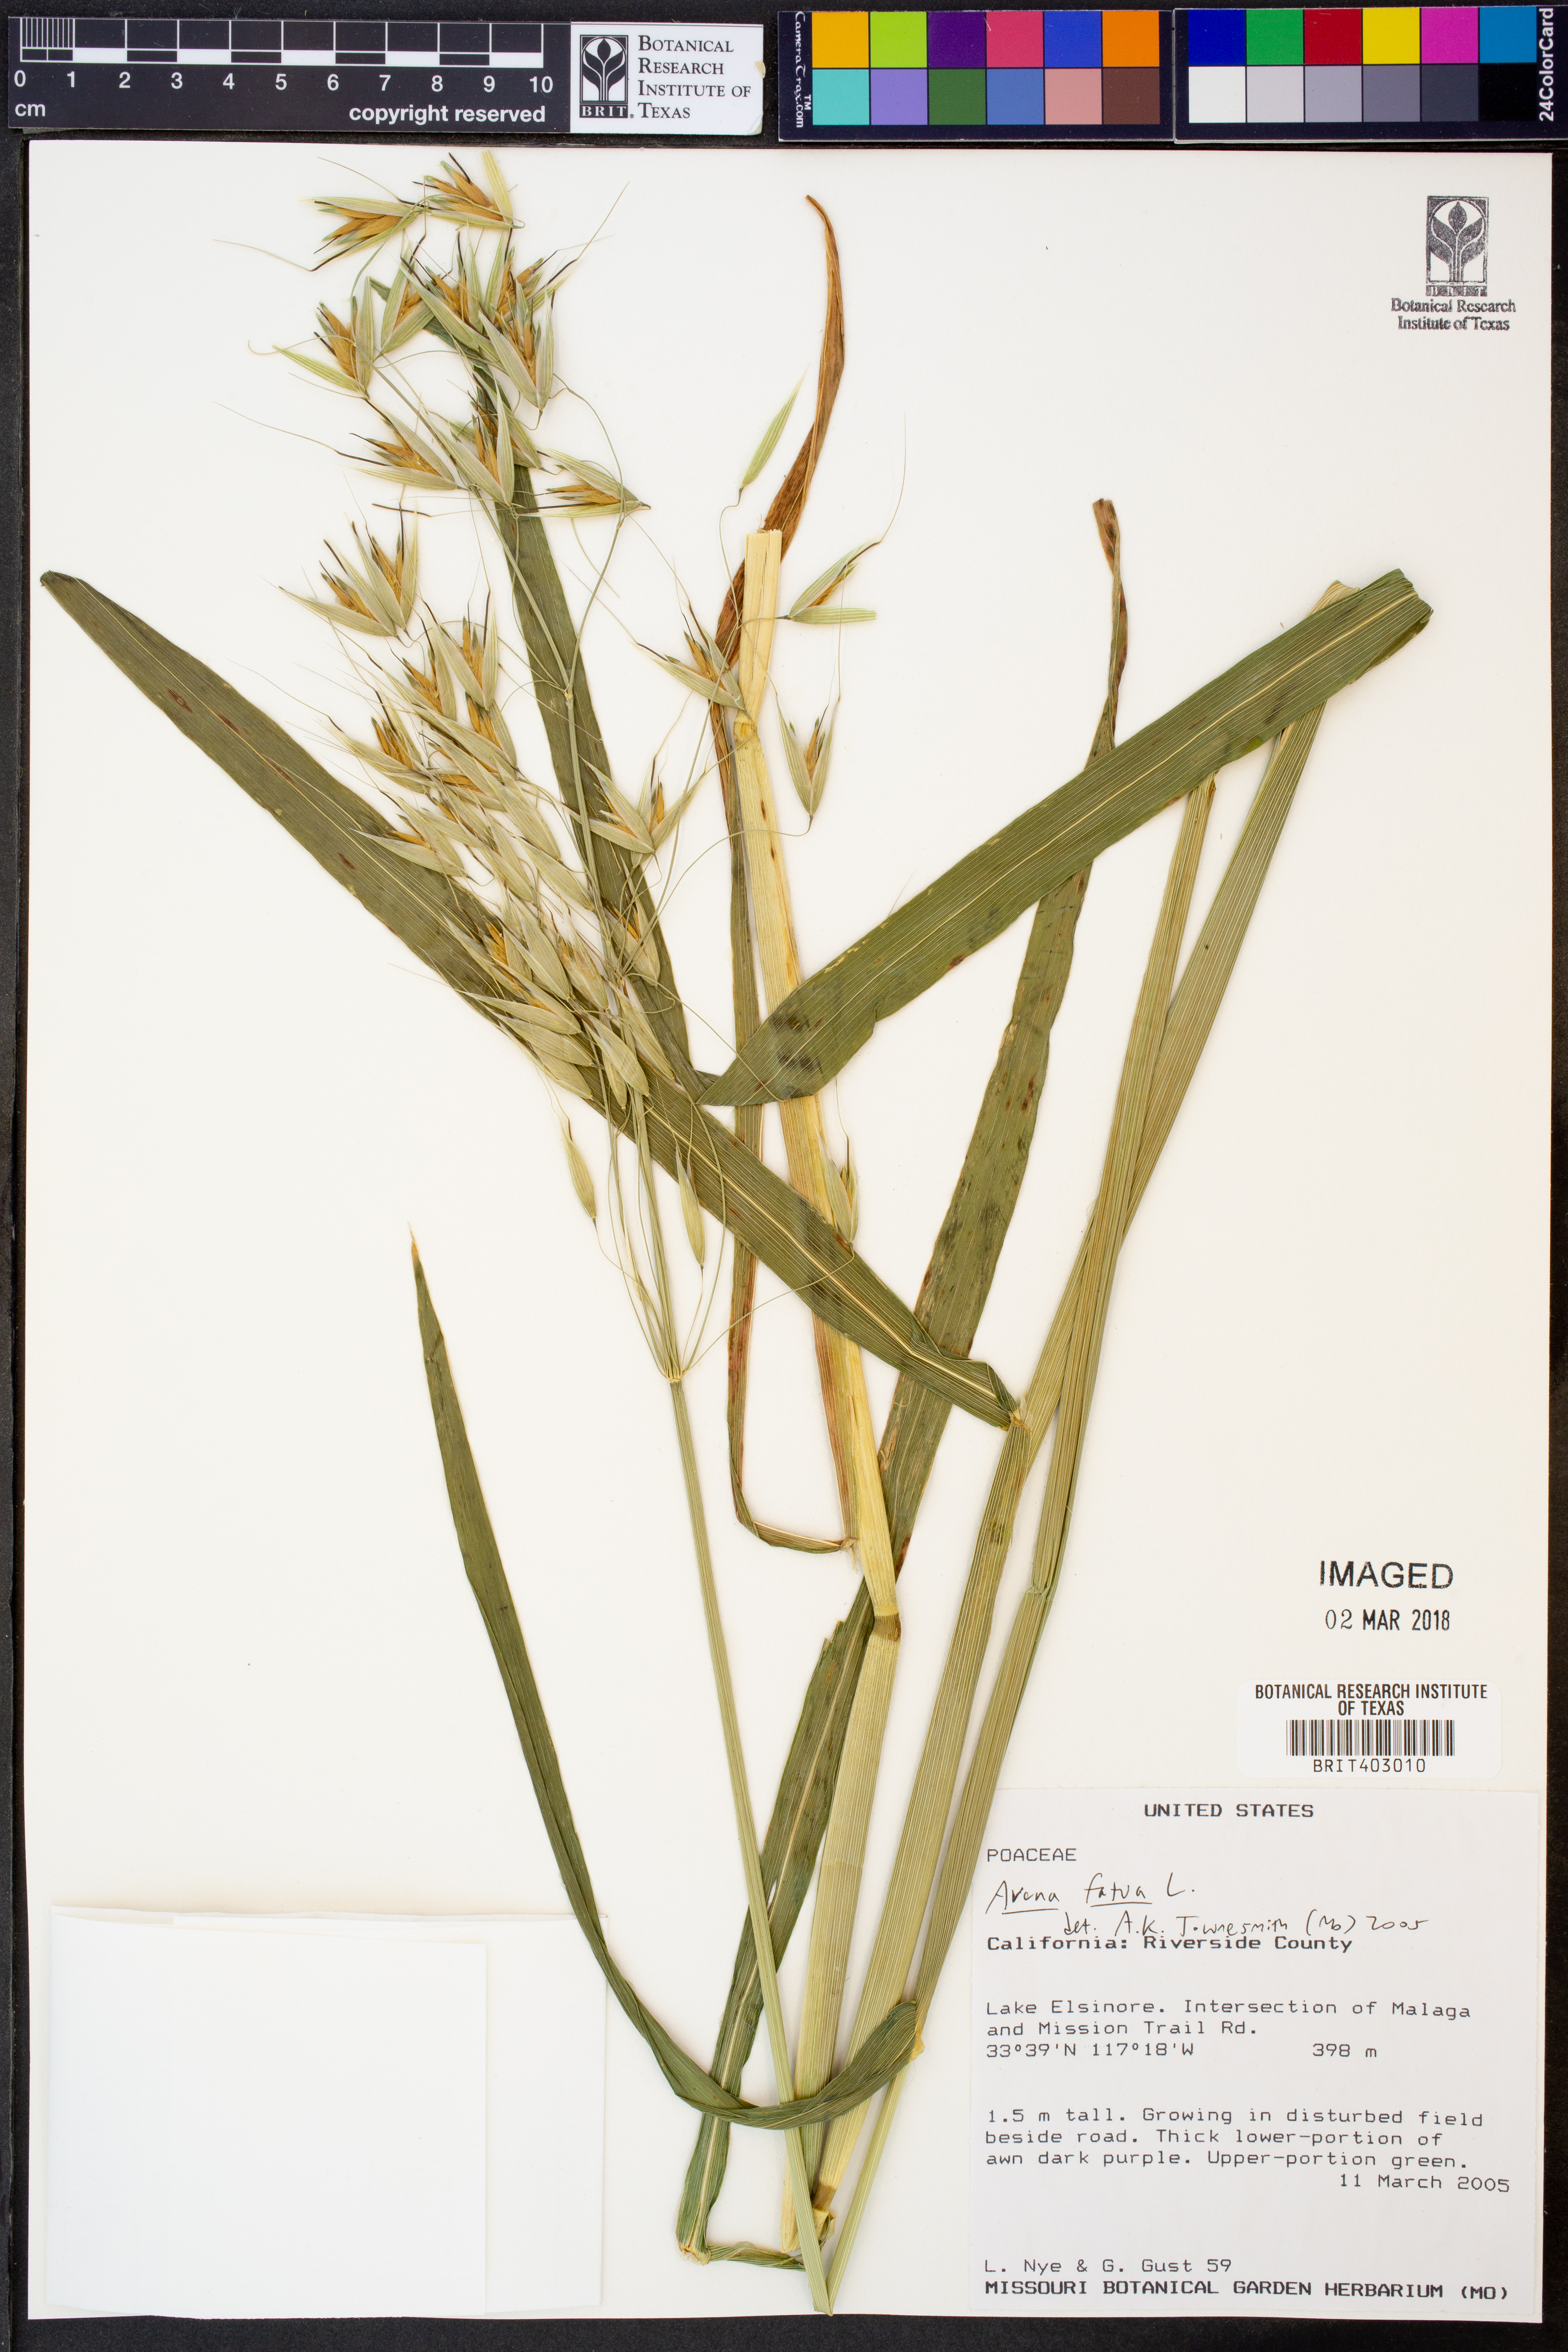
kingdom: Plantae
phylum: Tracheophyta
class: Liliopsida
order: Poales
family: Poaceae
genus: Avena
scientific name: Avena fatua
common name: Wild oat
